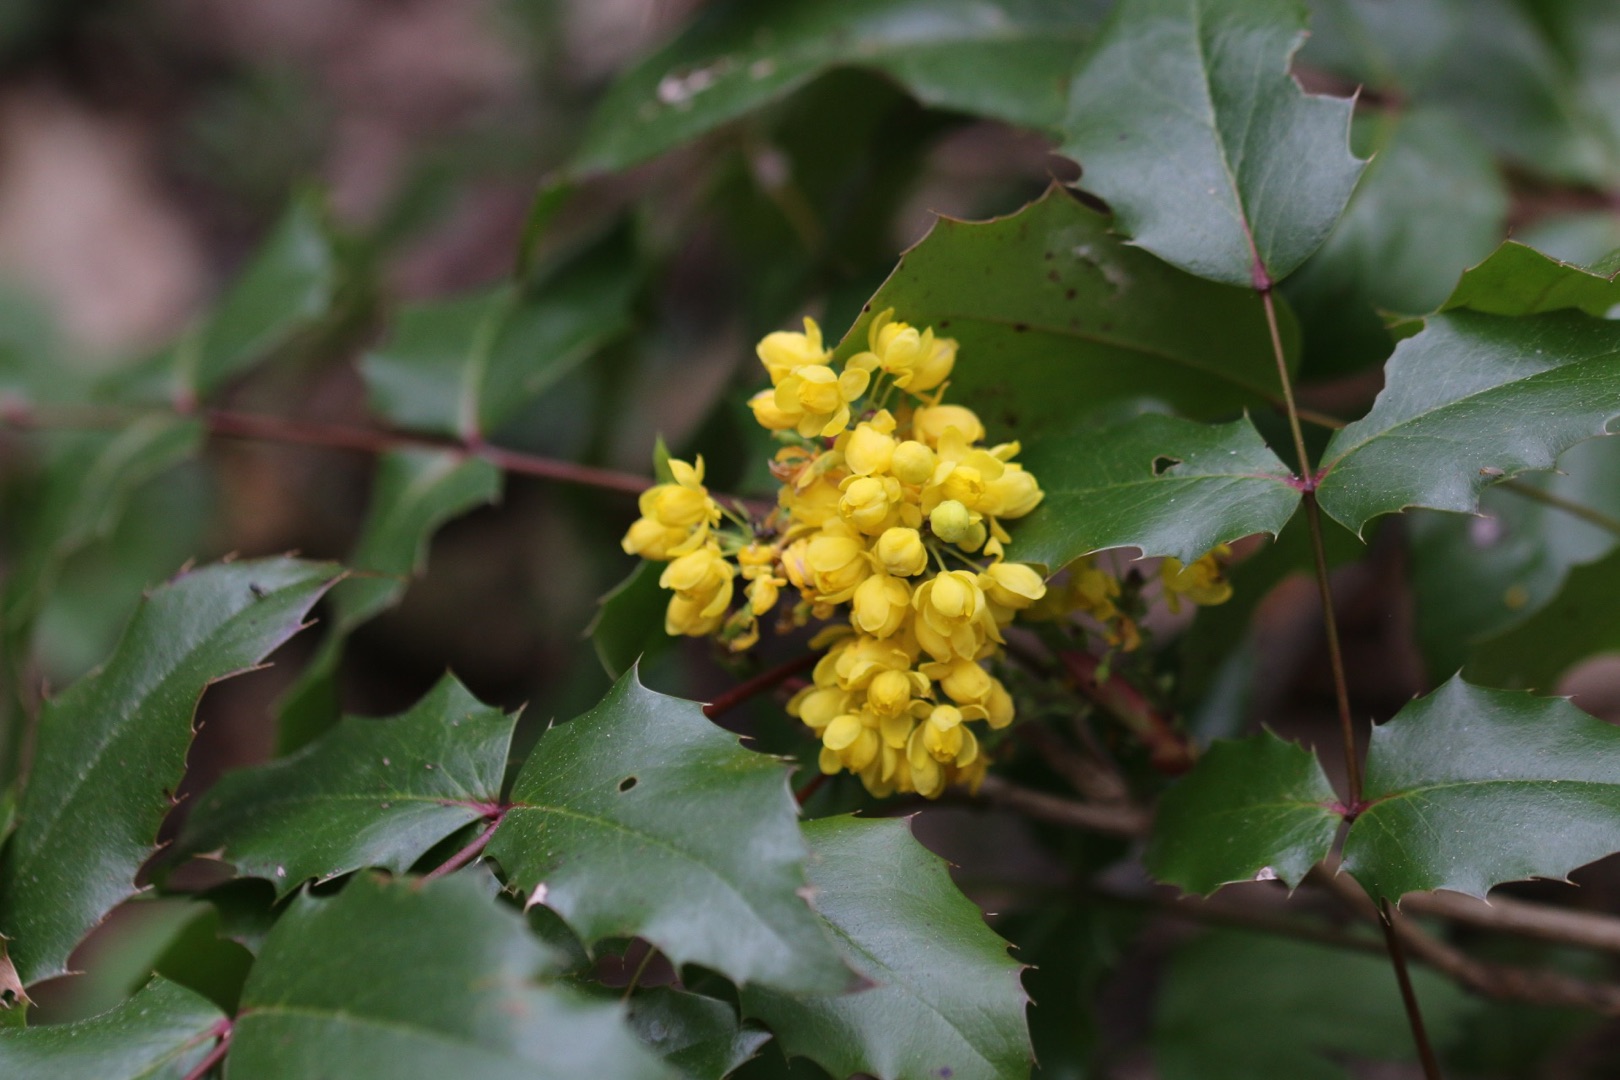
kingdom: Plantae
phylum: Tracheophyta
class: Magnoliopsida
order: Ranunculales
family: Berberidaceae
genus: Mahonia
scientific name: Mahonia aquifolium
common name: Almindelig mahonie
